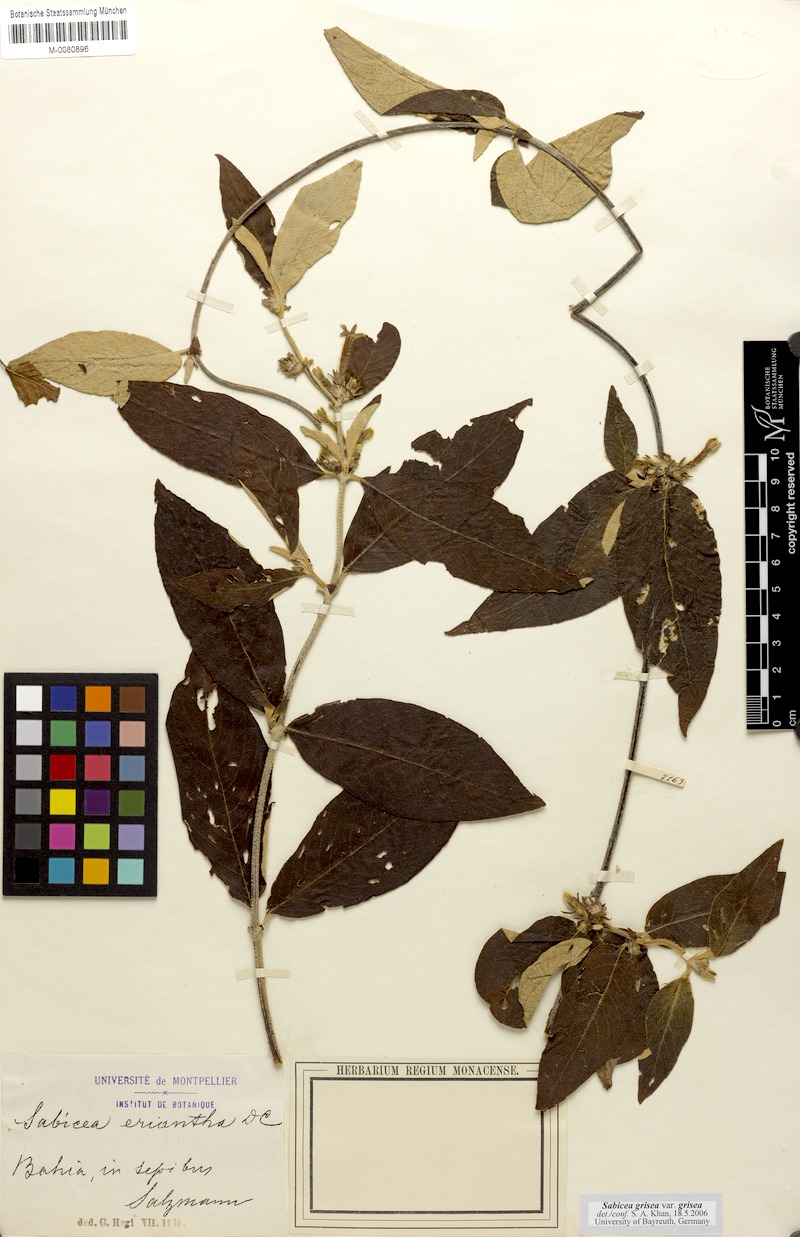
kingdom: Plantae
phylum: Tracheophyta
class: Magnoliopsida
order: Gentianales
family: Rubiaceae
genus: Sabicea
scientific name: Sabicea grisea
